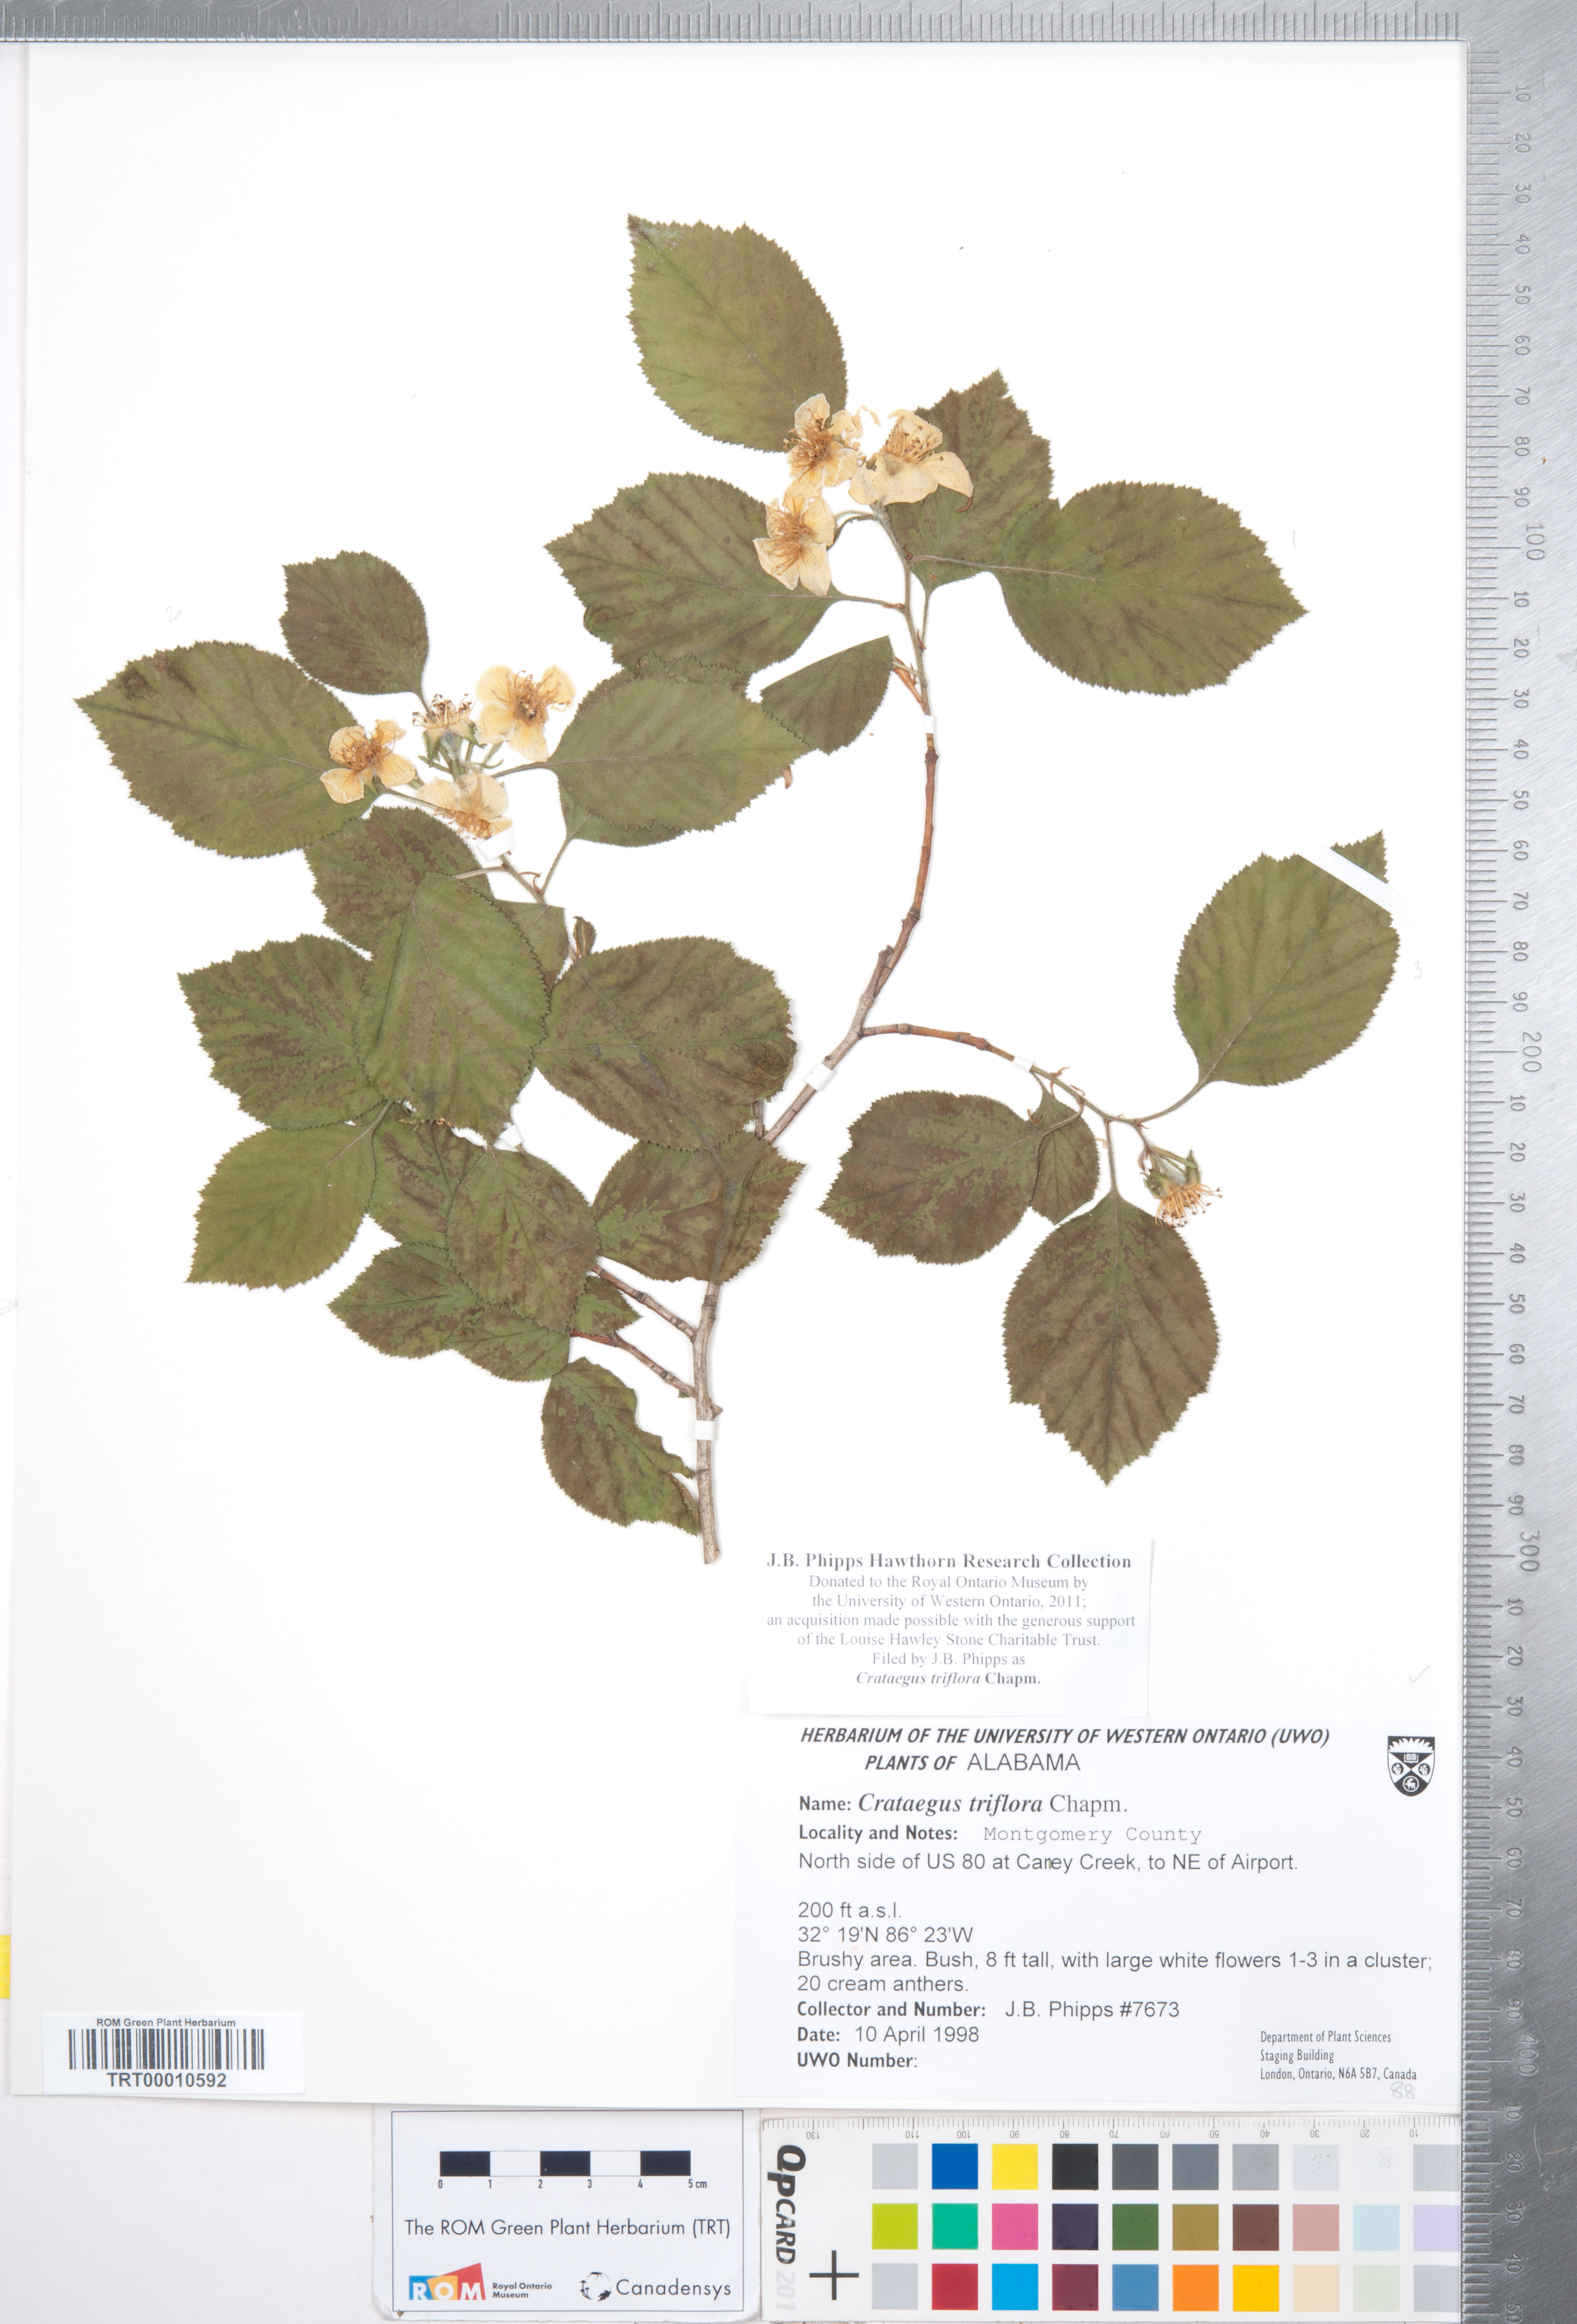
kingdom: Plantae
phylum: Tracheophyta
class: Magnoliopsida
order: Rosales
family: Rosaceae
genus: Crataegus
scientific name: Crataegus triflora
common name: Three-flower hawthorn
